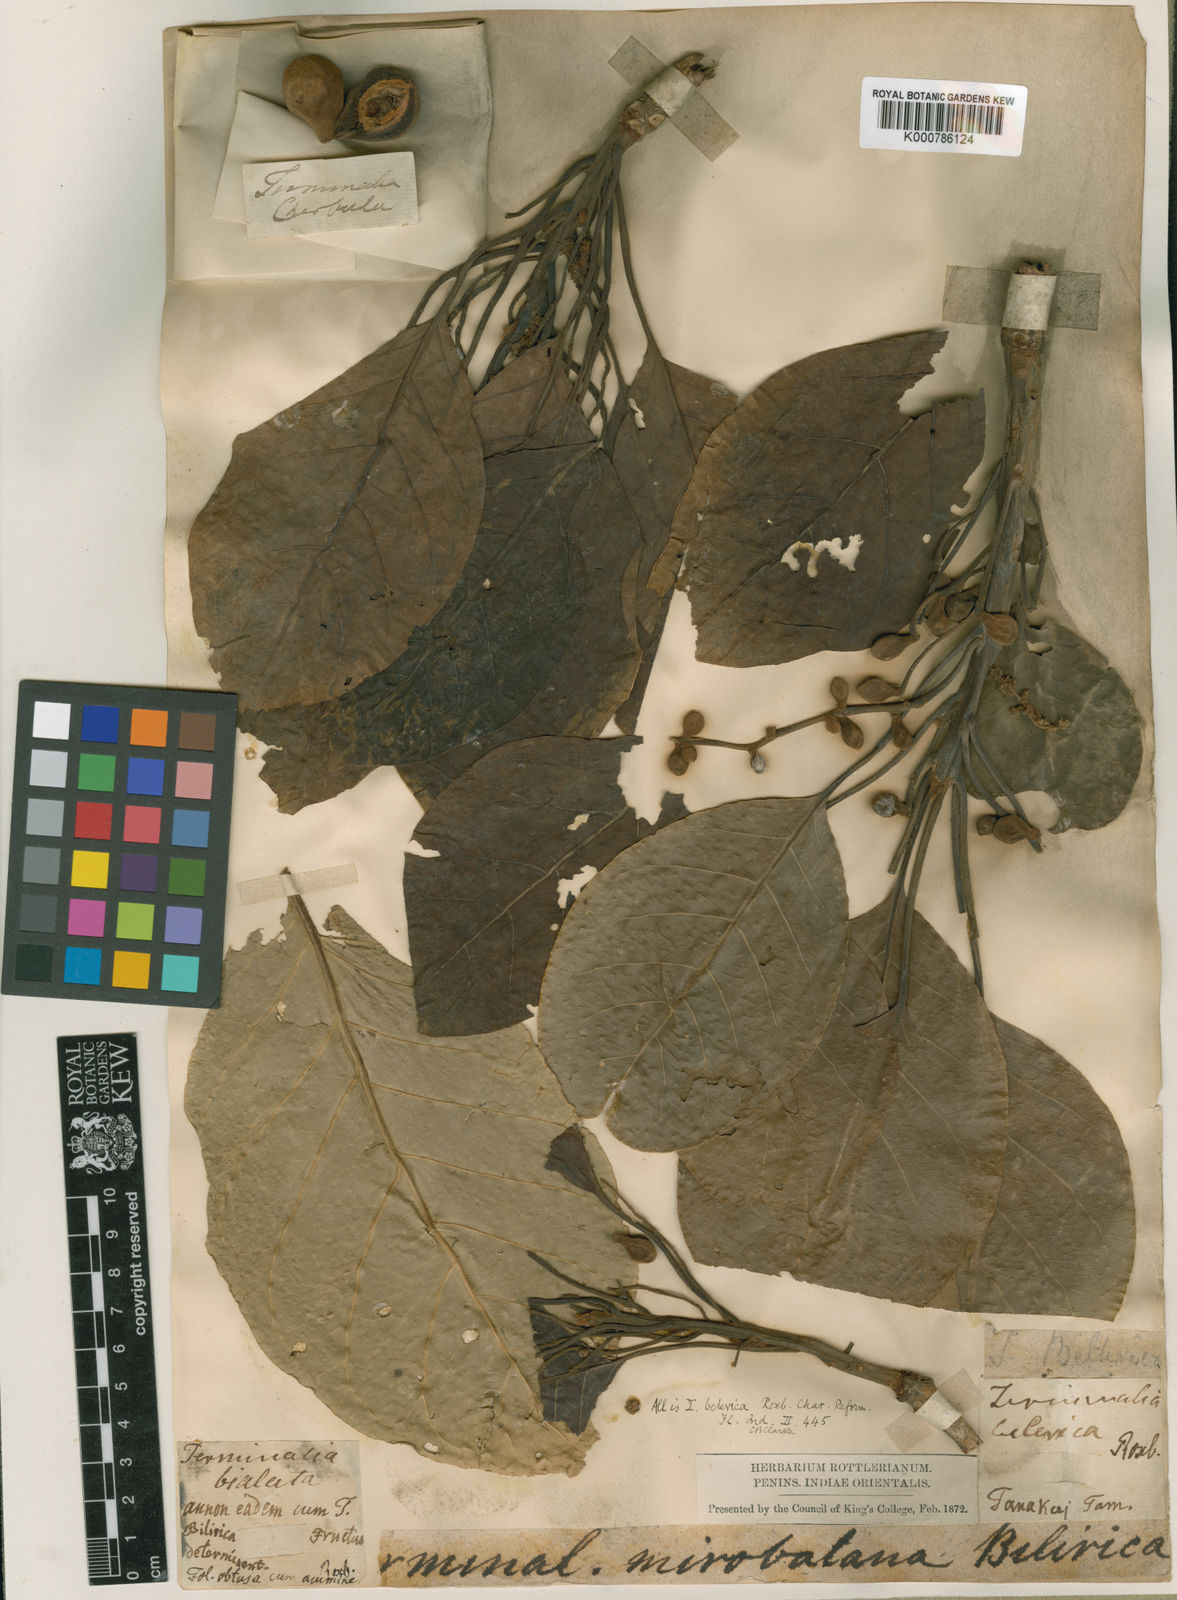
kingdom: Plantae
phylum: Tracheophyta
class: Magnoliopsida
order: Myrtales
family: Combretaceae
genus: Terminalia
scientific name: Terminalia bellirica
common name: Beleric myrobalan
